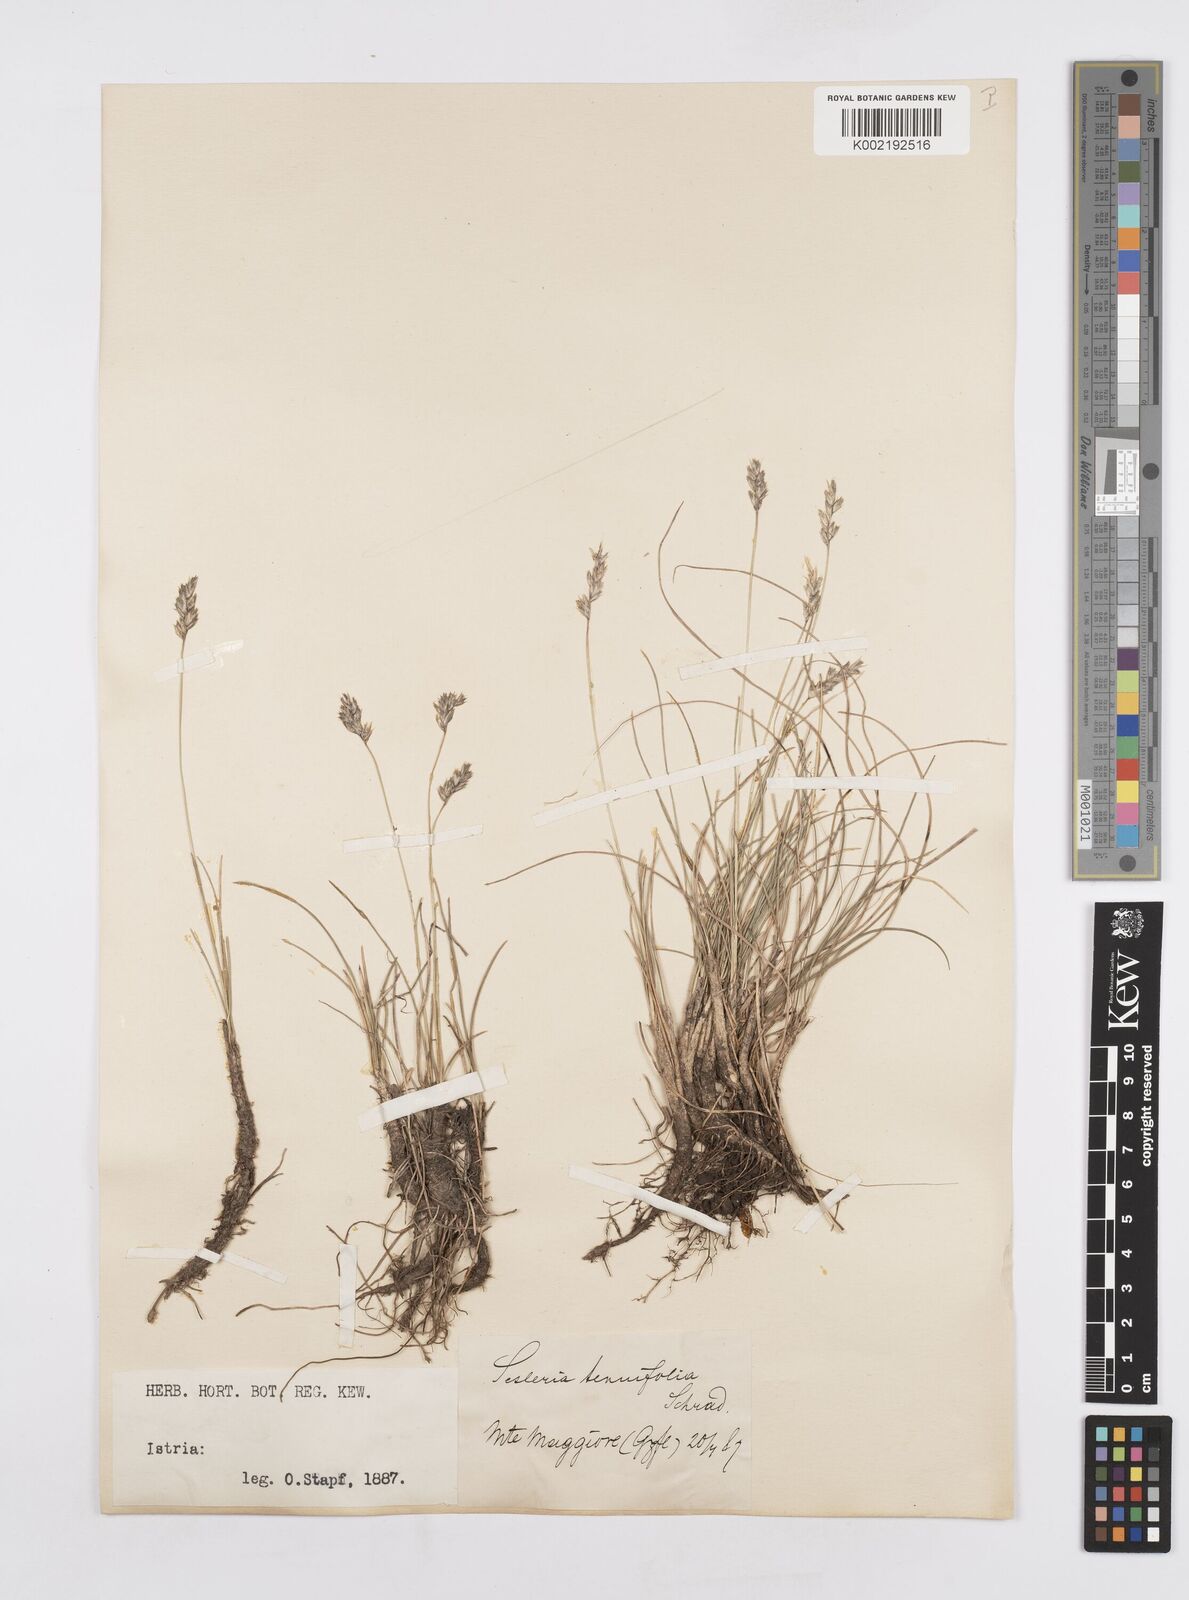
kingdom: Plantae
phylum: Tracheophyta
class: Liliopsida
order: Poales
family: Poaceae
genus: Sesleria
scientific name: Sesleria juncifolia
